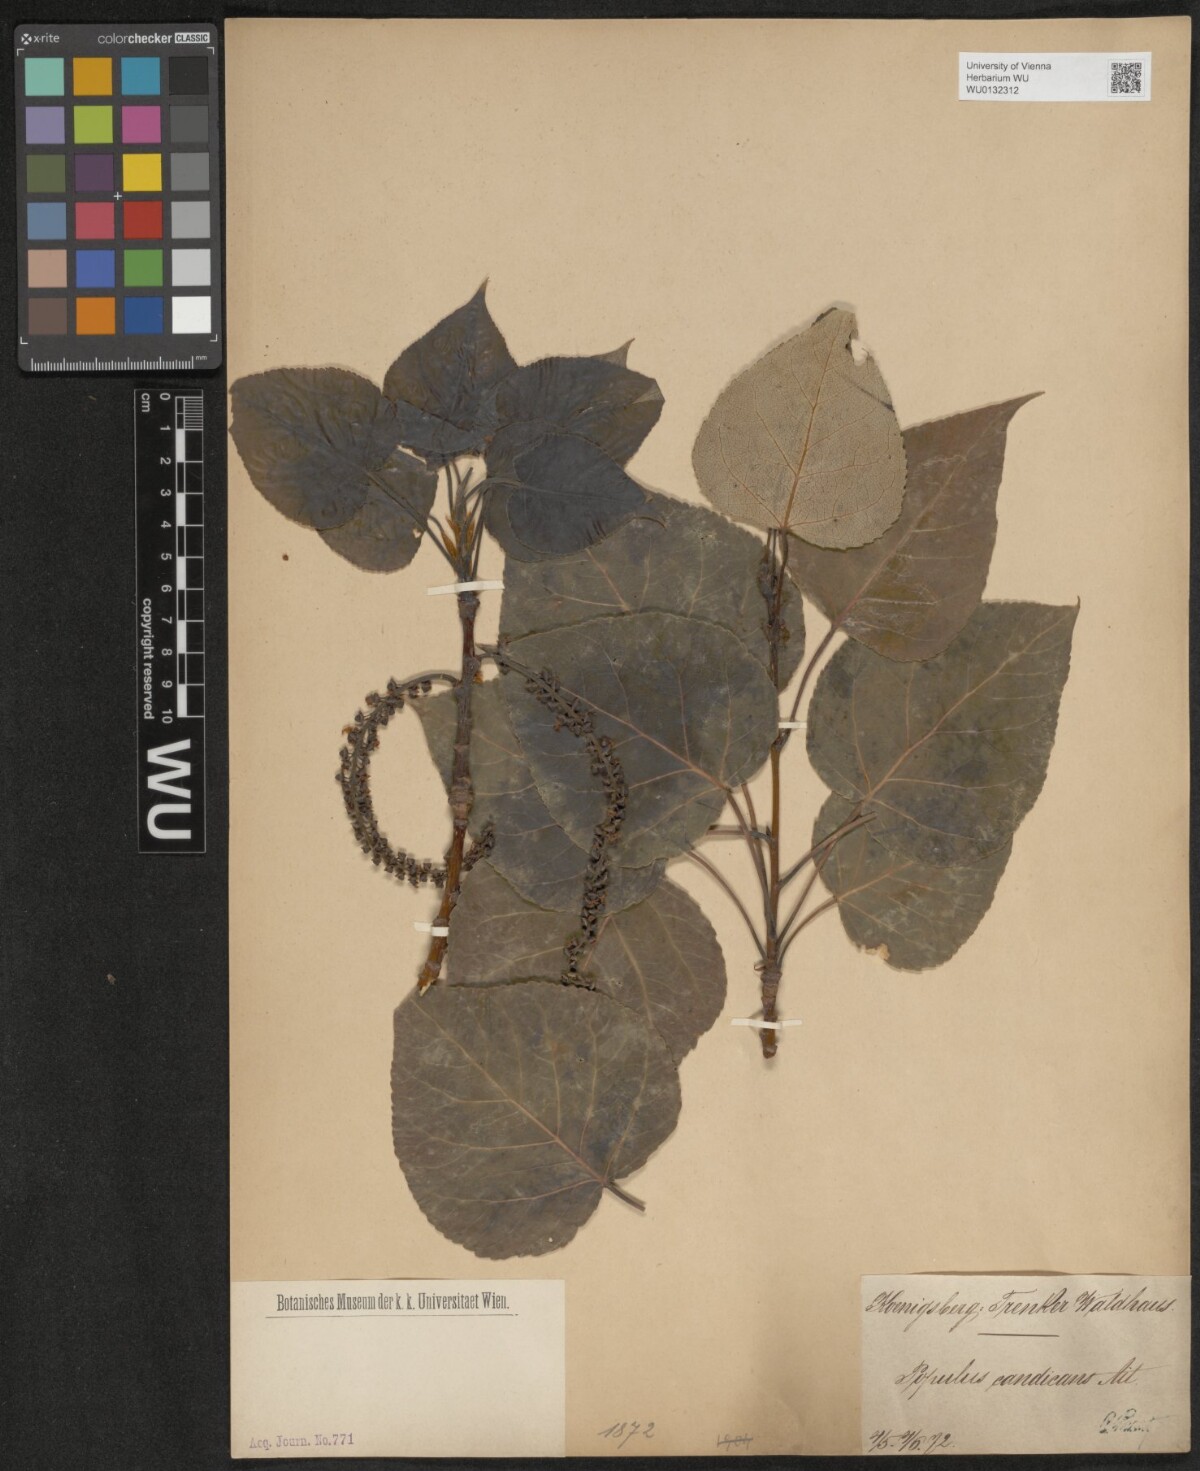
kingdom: Plantae
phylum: Tracheophyta
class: Magnoliopsida
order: Malpighiales
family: Salicaceae
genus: Populus
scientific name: Populus balsamifera
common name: Balsam poplar
